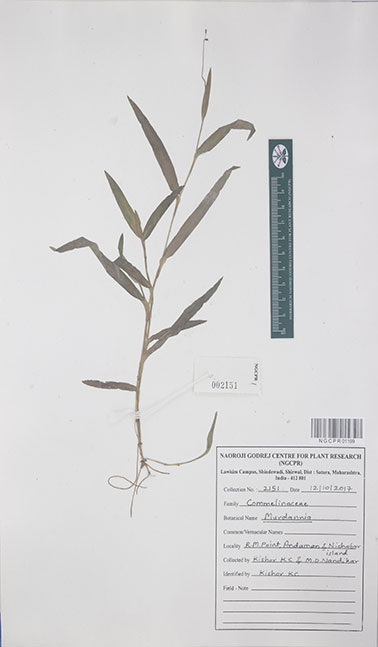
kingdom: Plantae
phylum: Tracheophyta
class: Liliopsida
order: Commelinales
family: Commelinaceae
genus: Murdannia
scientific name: Murdannia
